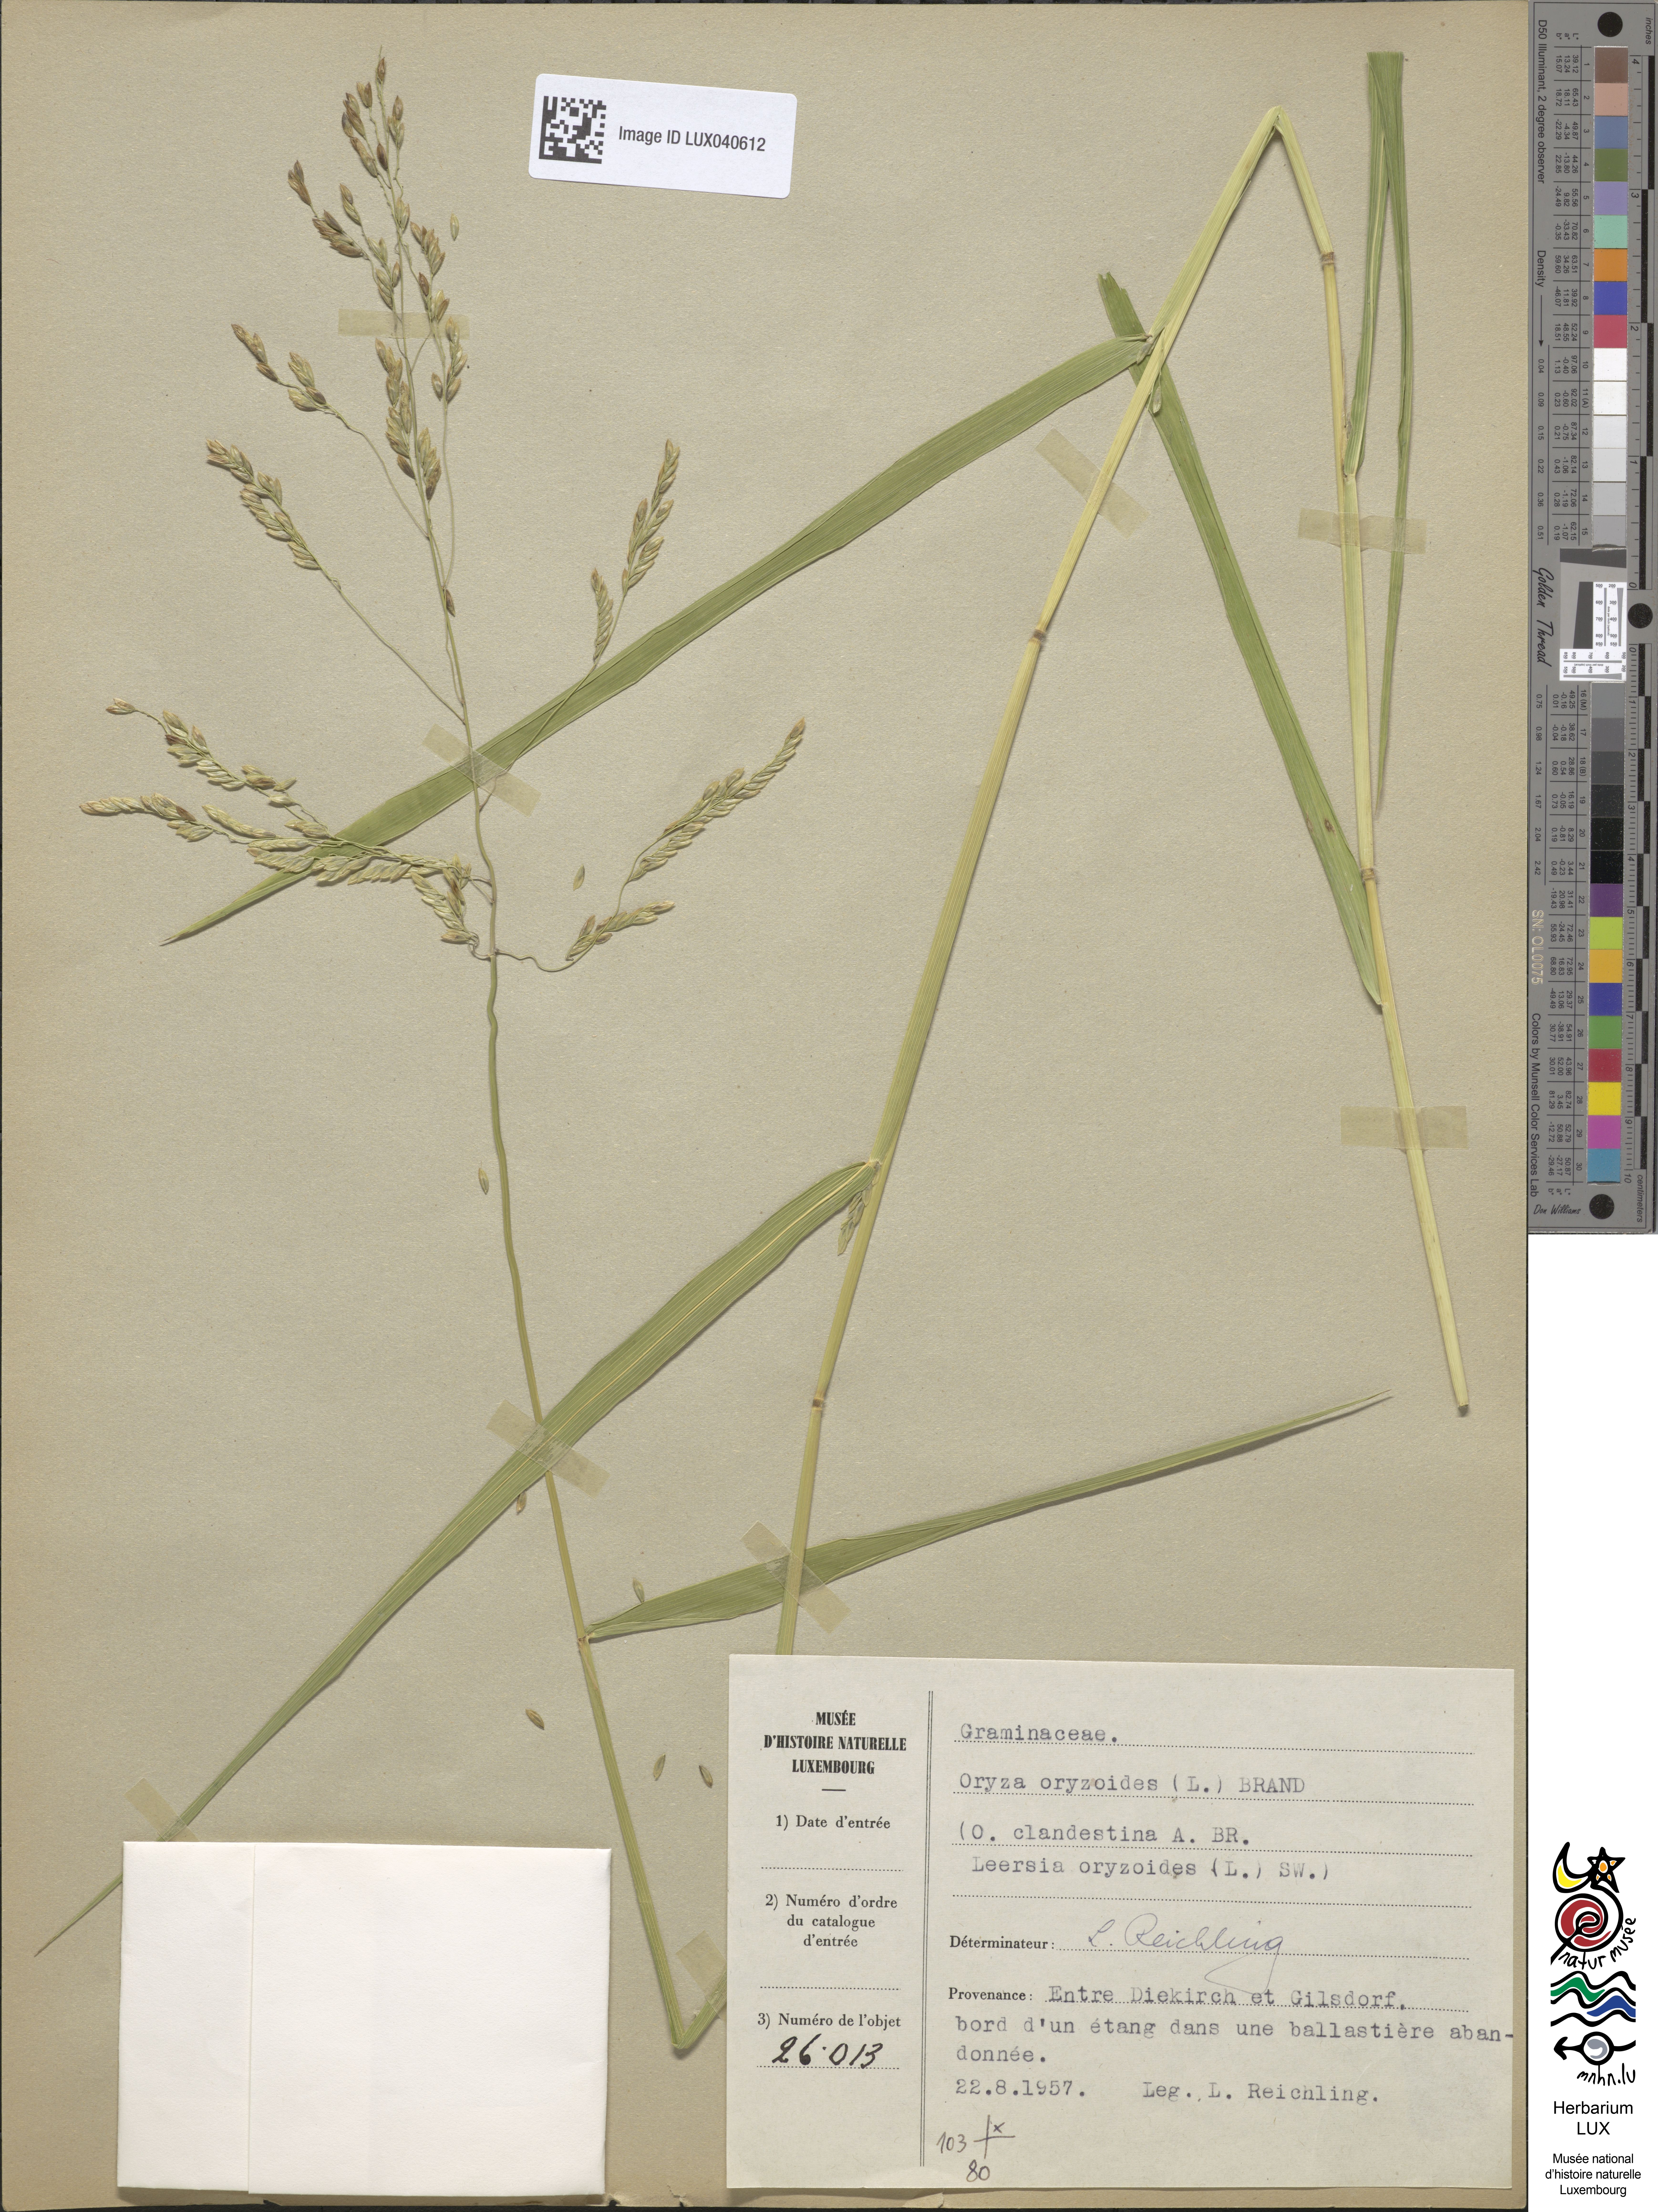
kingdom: Plantae
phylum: Tracheophyta
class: Liliopsida
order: Poales
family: Poaceae
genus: Leersia
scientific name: Leersia oryzoides
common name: Cut-grass
